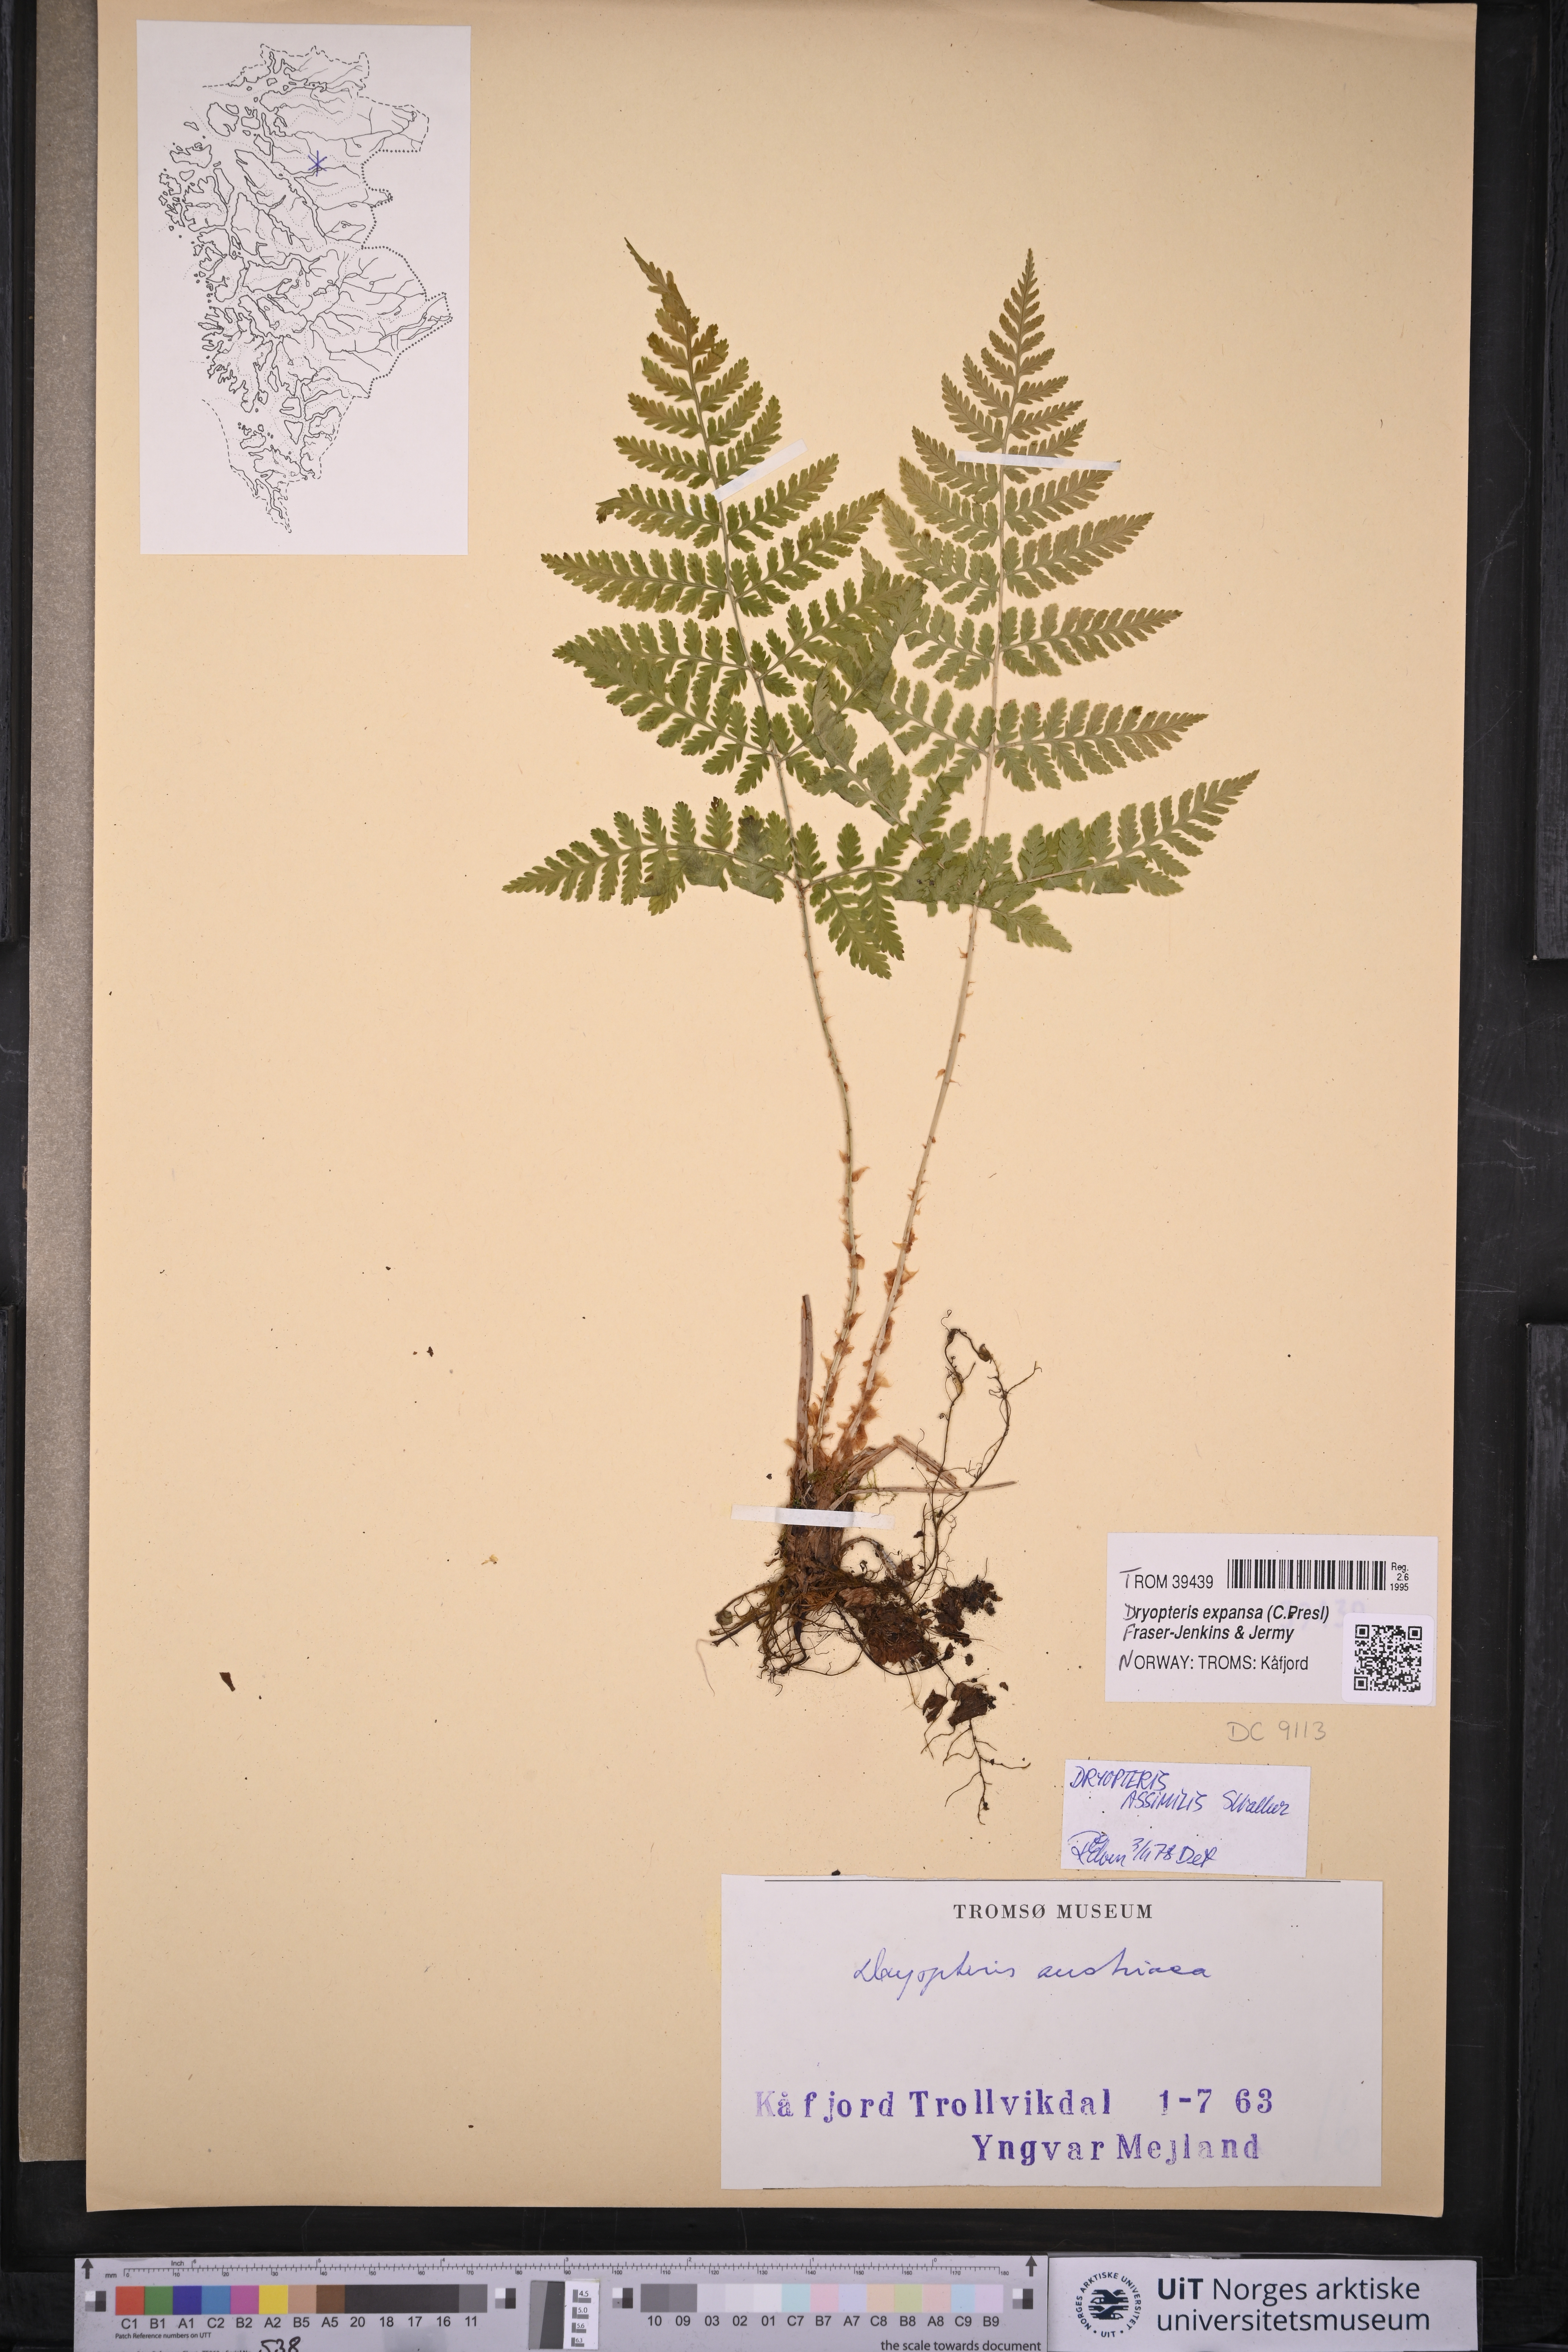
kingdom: Plantae
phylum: Tracheophyta
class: Polypodiopsida
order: Polypodiales
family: Dryopteridaceae
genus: Dryopteris
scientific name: Dryopteris expansa
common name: Northern buckler fern
